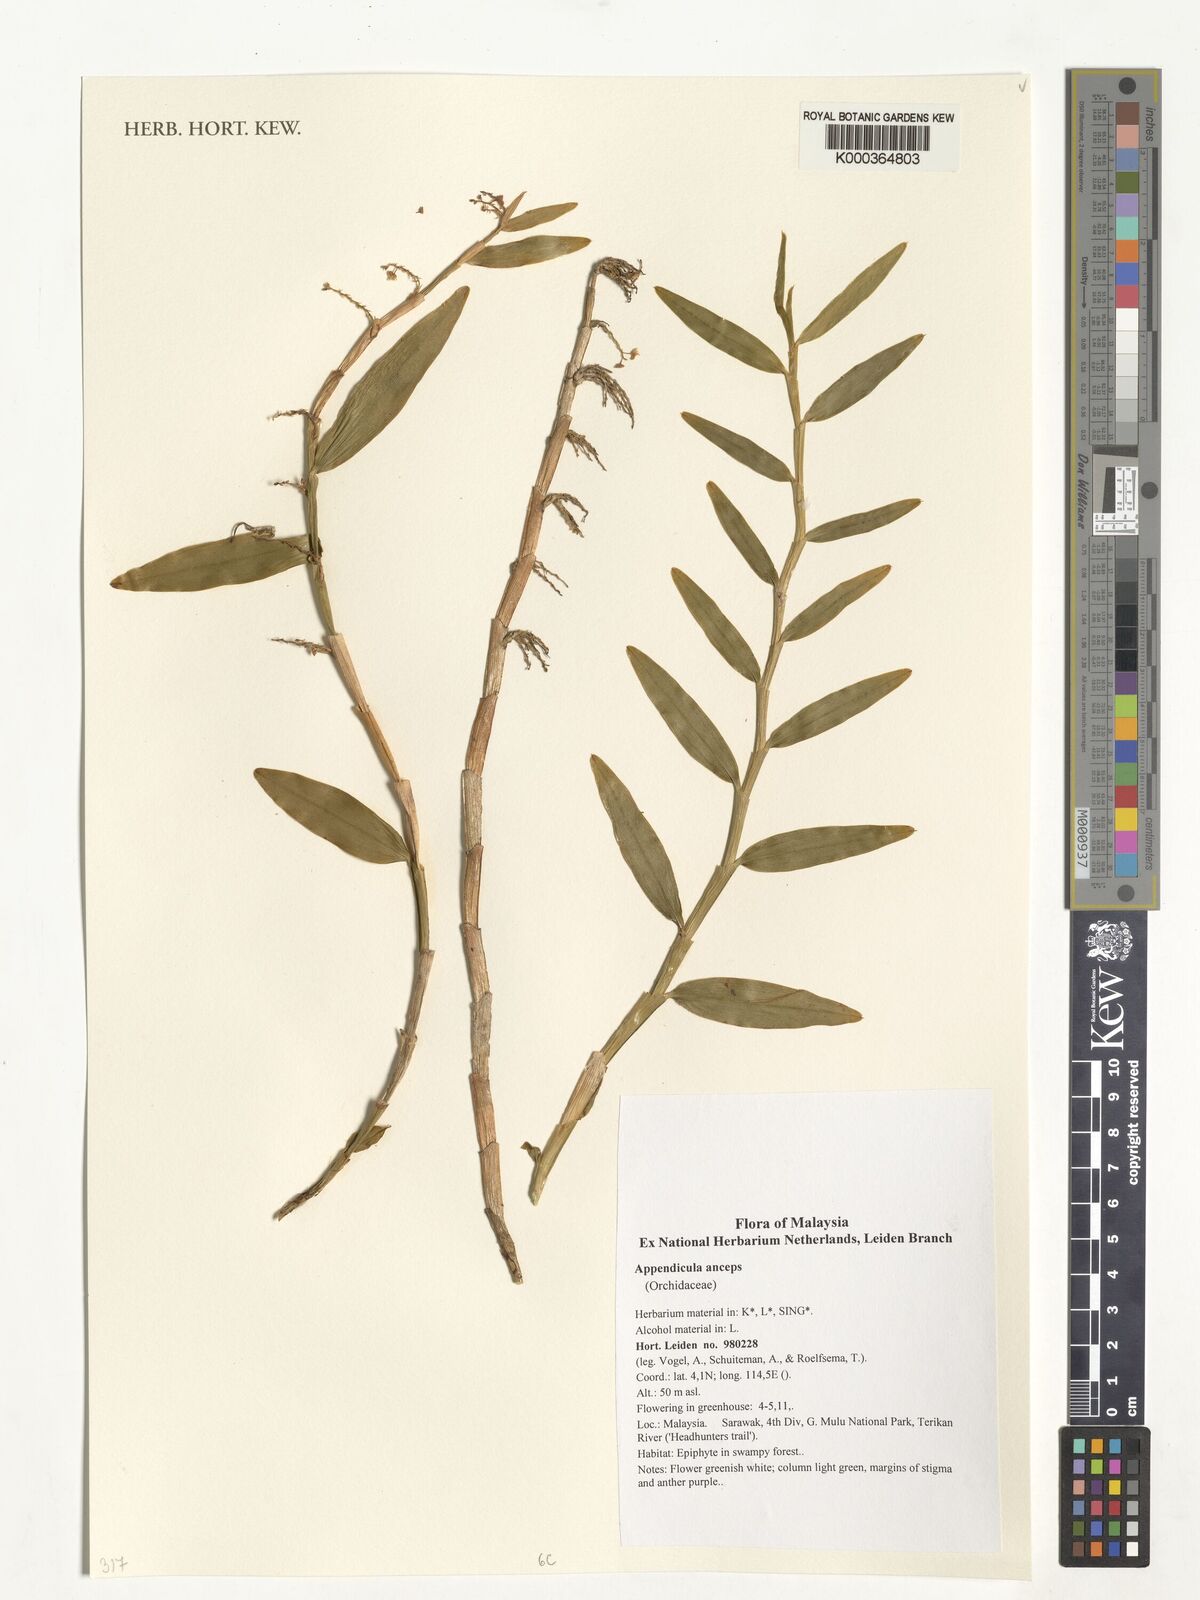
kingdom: Plantae
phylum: Tracheophyta
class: Liliopsida
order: Asparagales
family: Orchidaceae
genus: Appendicula
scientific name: Appendicula anceps
